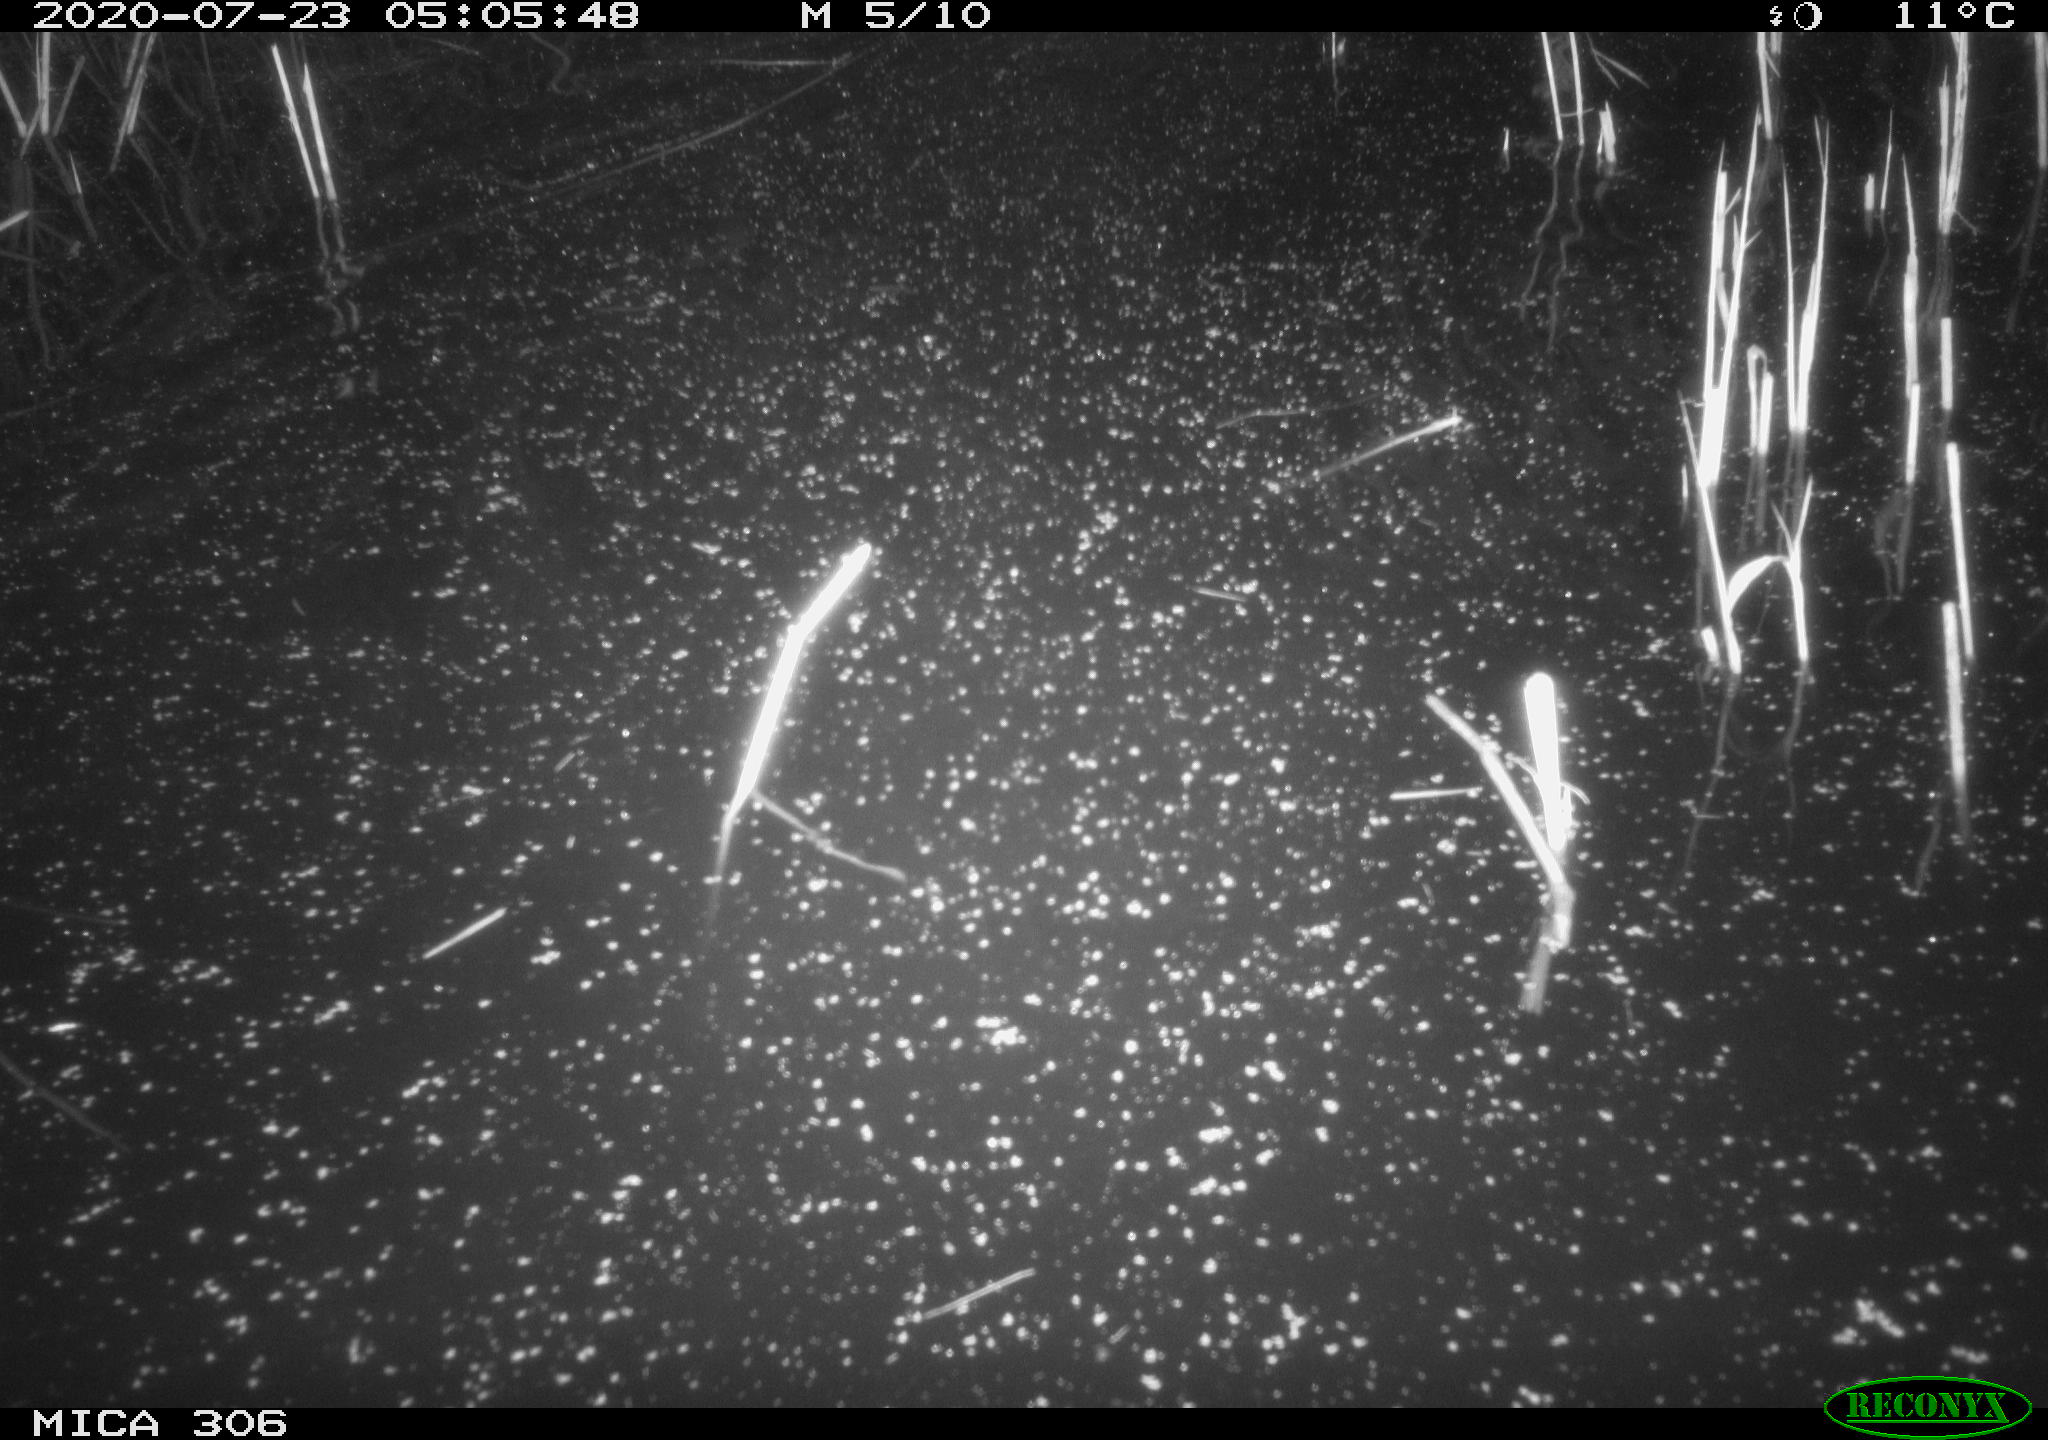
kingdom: Animalia
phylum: Chordata
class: Mammalia
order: Rodentia
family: Cricetidae
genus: Ondatra
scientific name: Ondatra zibethicus
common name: Muskrat
